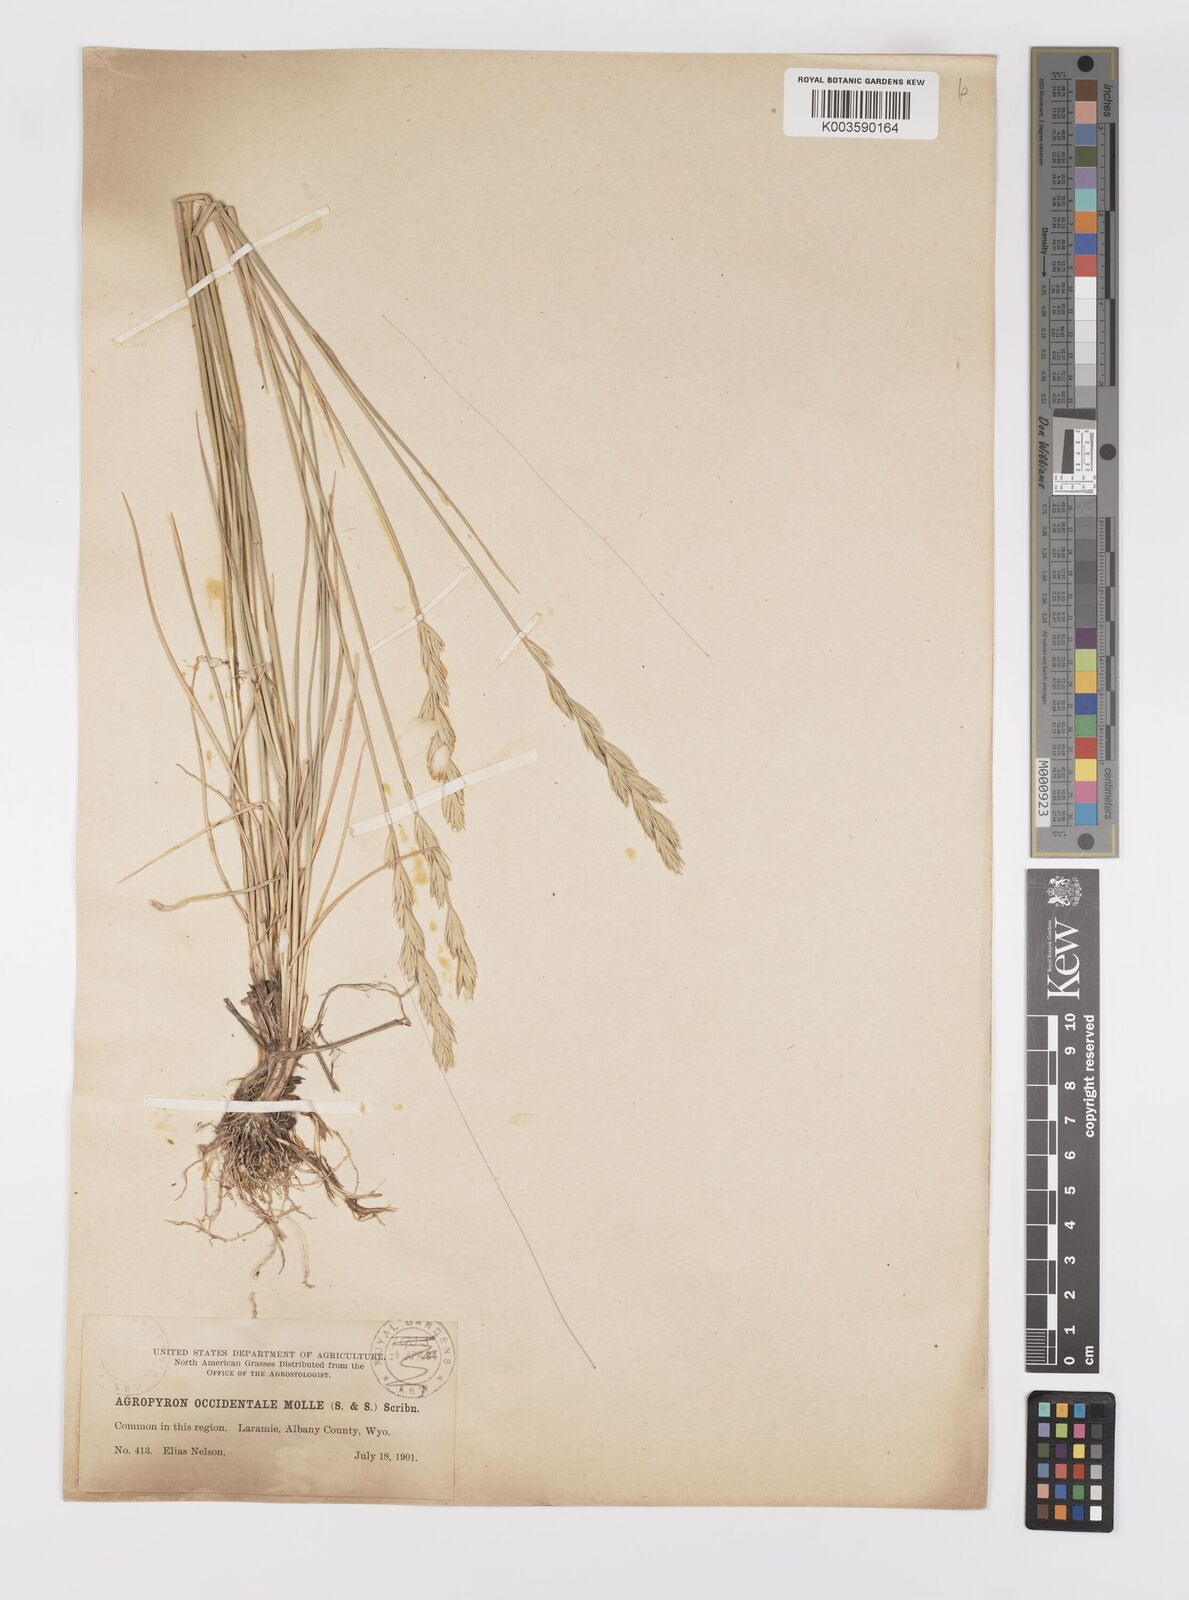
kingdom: Plantae
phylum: Tracheophyta
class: Liliopsida
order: Poales
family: Poaceae
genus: Elymus
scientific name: Elymus smithii
